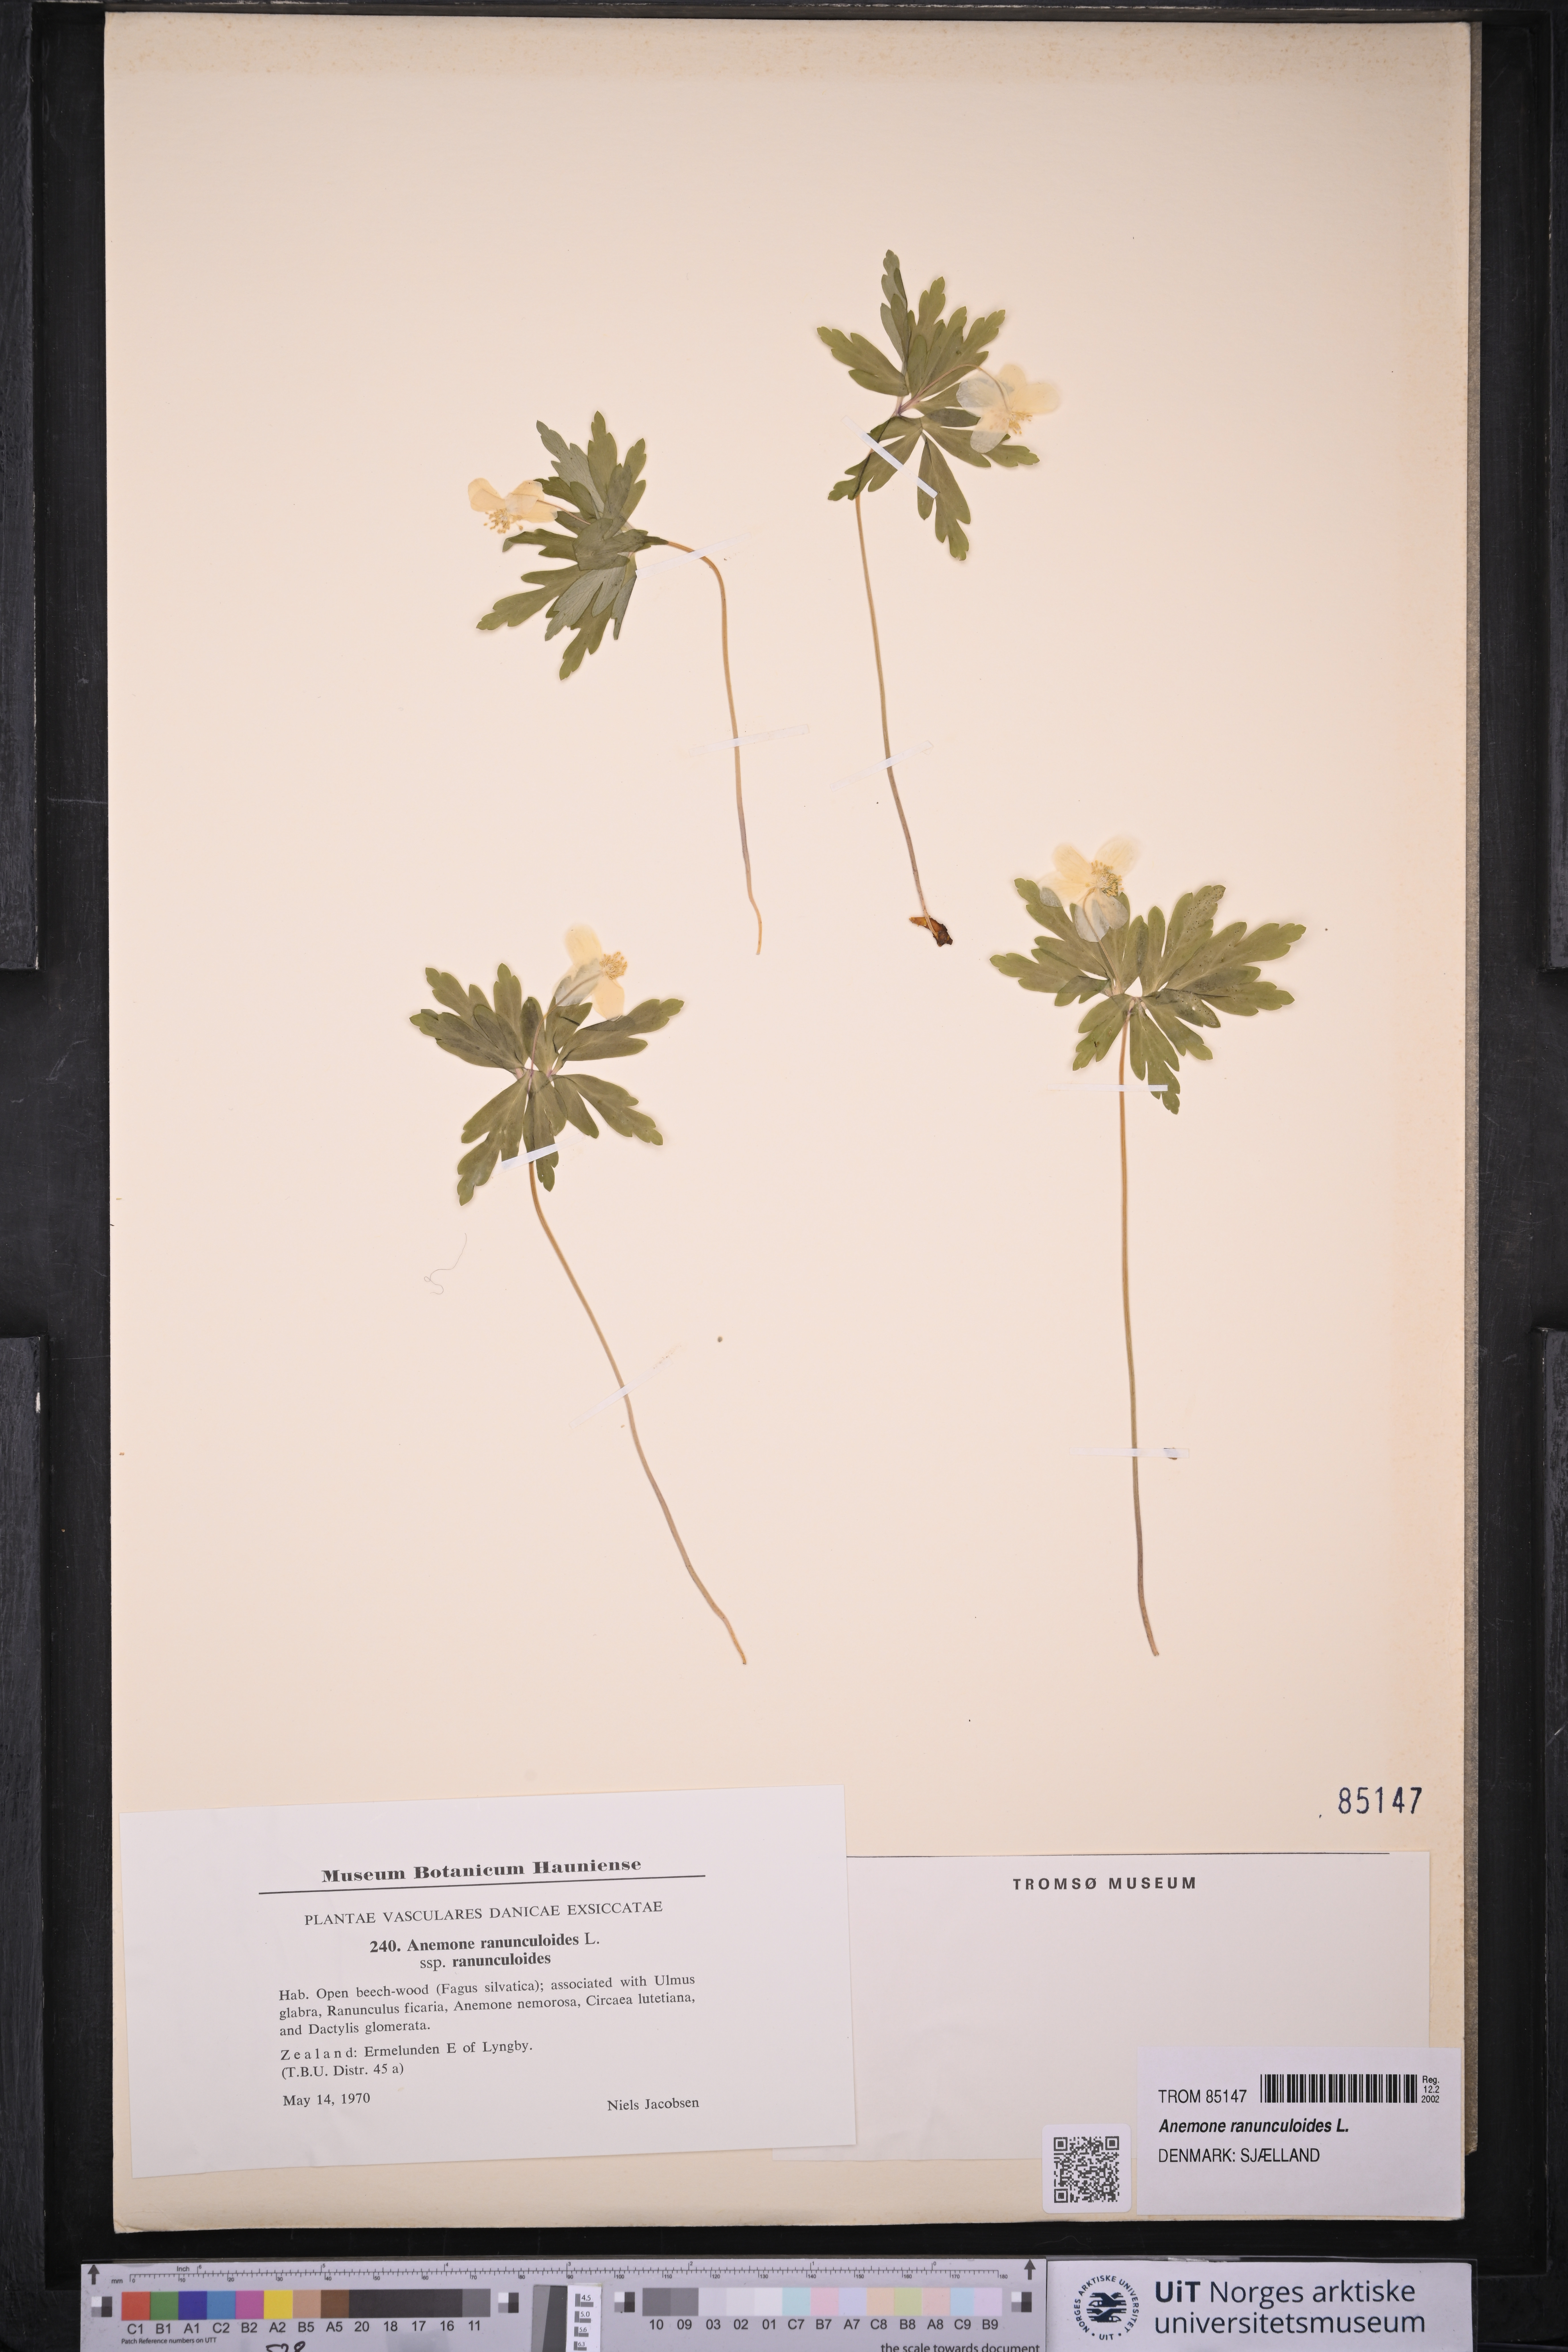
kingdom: Plantae
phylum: Tracheophyta
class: Magnoliopsida
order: Ranunculales
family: Ranunculaceae
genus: Anemone
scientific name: Anemone ranunculoides
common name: Yellow anemone
